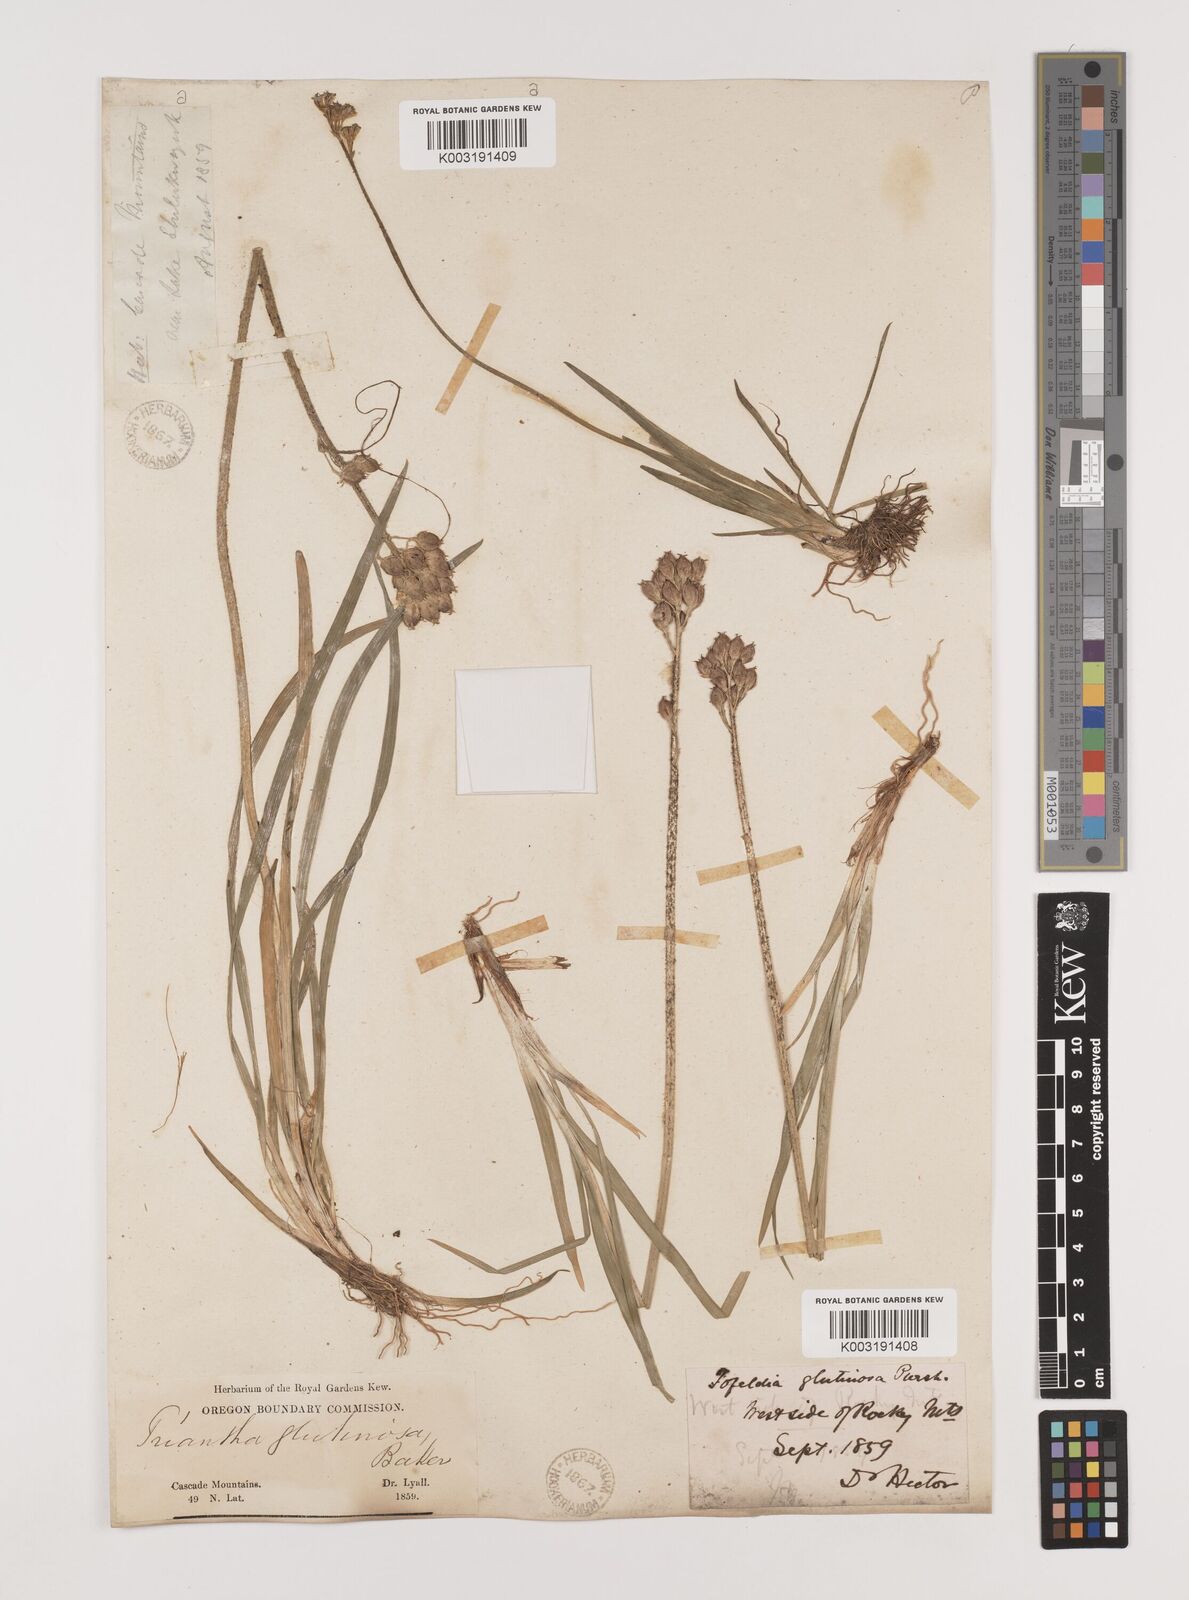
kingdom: Plantae
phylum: Tracheophyta
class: Liliopsida
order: Alismatales
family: Tofieldiaceae
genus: Triantha
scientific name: Triantha glutinosa
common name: Glutinous tofieldia
